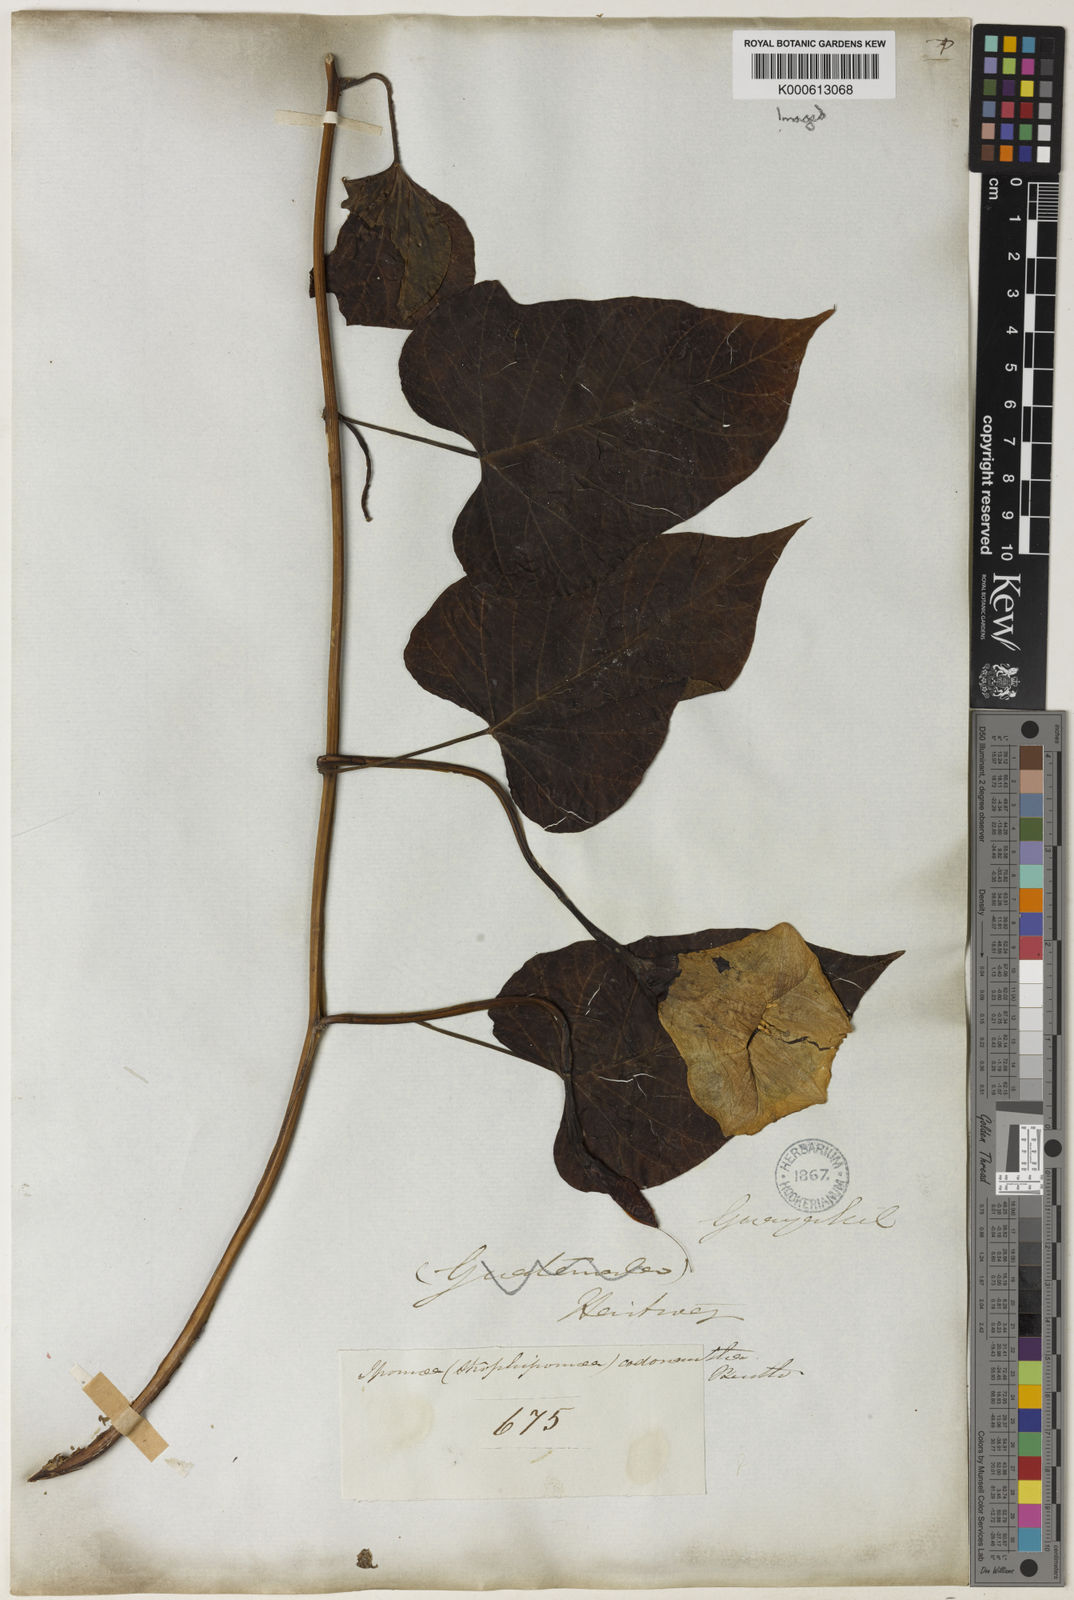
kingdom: Plantae
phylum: Tracheophyta
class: Magnoliopsida
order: Solanales
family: Convolvulaceae
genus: Operculina
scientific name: Operculina codonantha
